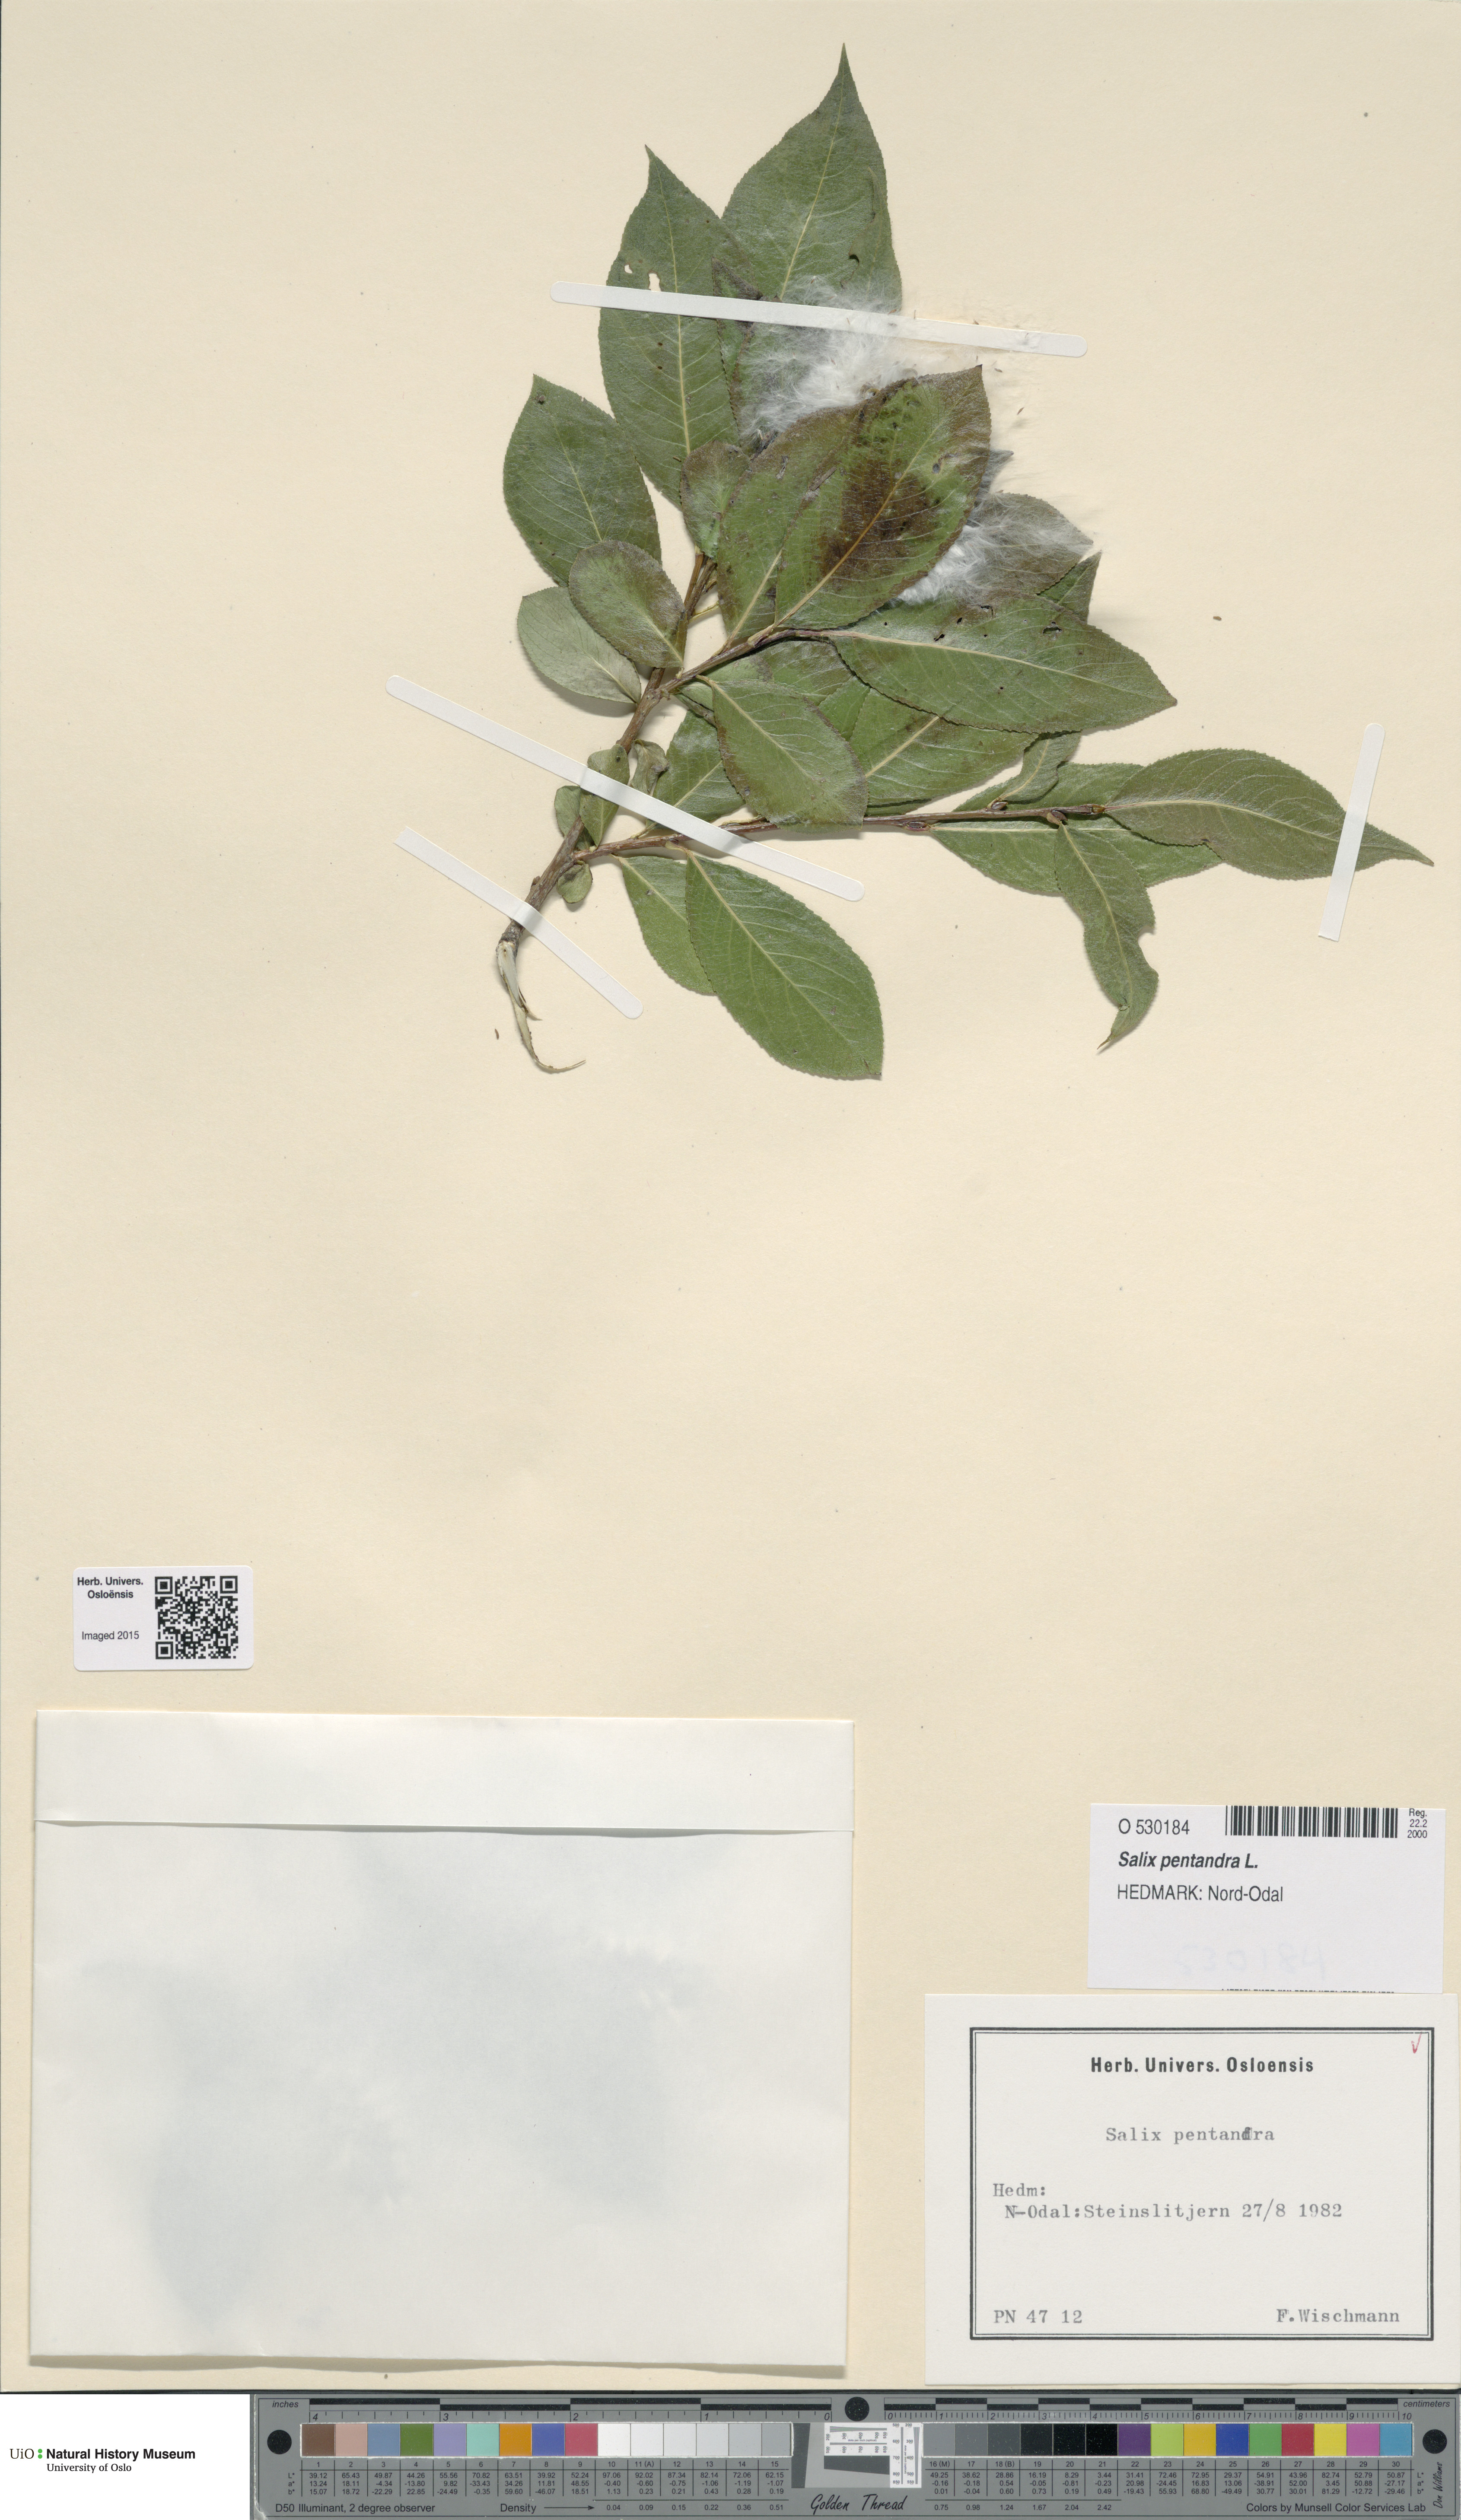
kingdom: Plantae
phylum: Tracheophyta
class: Magnoliopsida
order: Malpighiales
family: Salicaceae
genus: Salix
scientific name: Salix pentandra
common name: Bay willow
